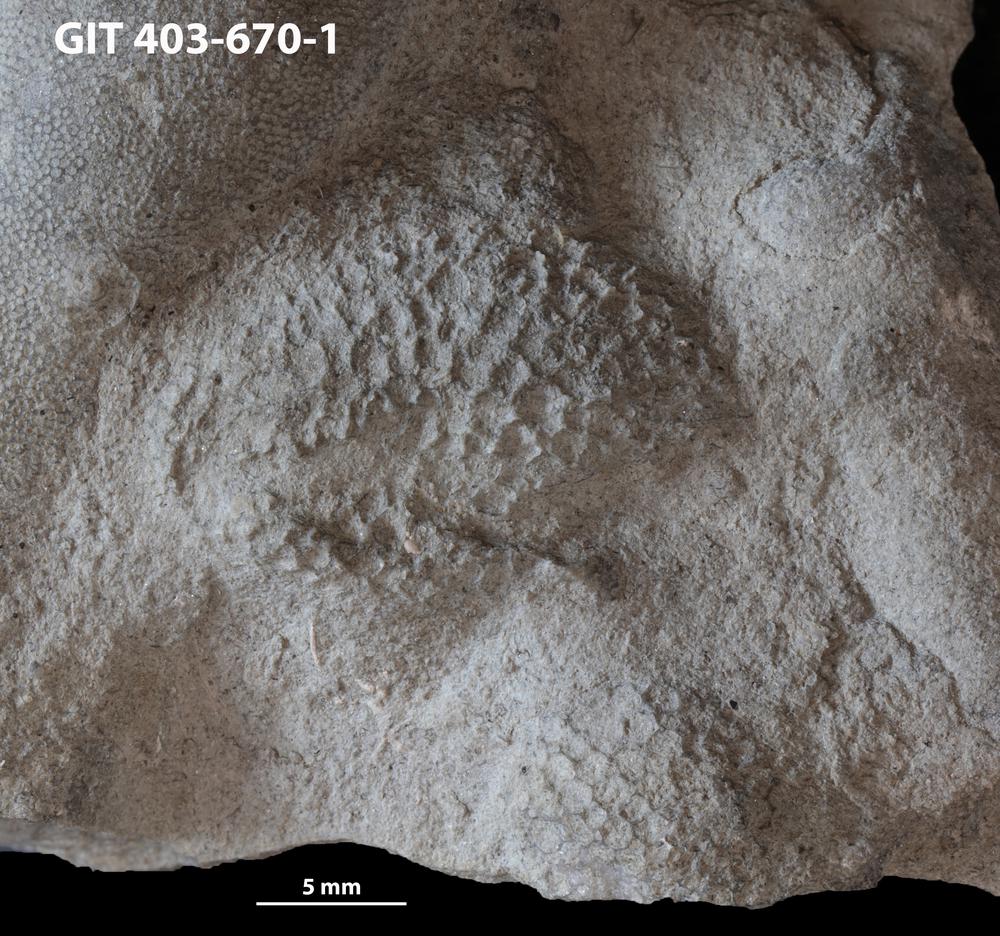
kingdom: Animalia
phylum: Cnidaria
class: Anthozoa
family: Favositidae
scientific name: Favositidae
